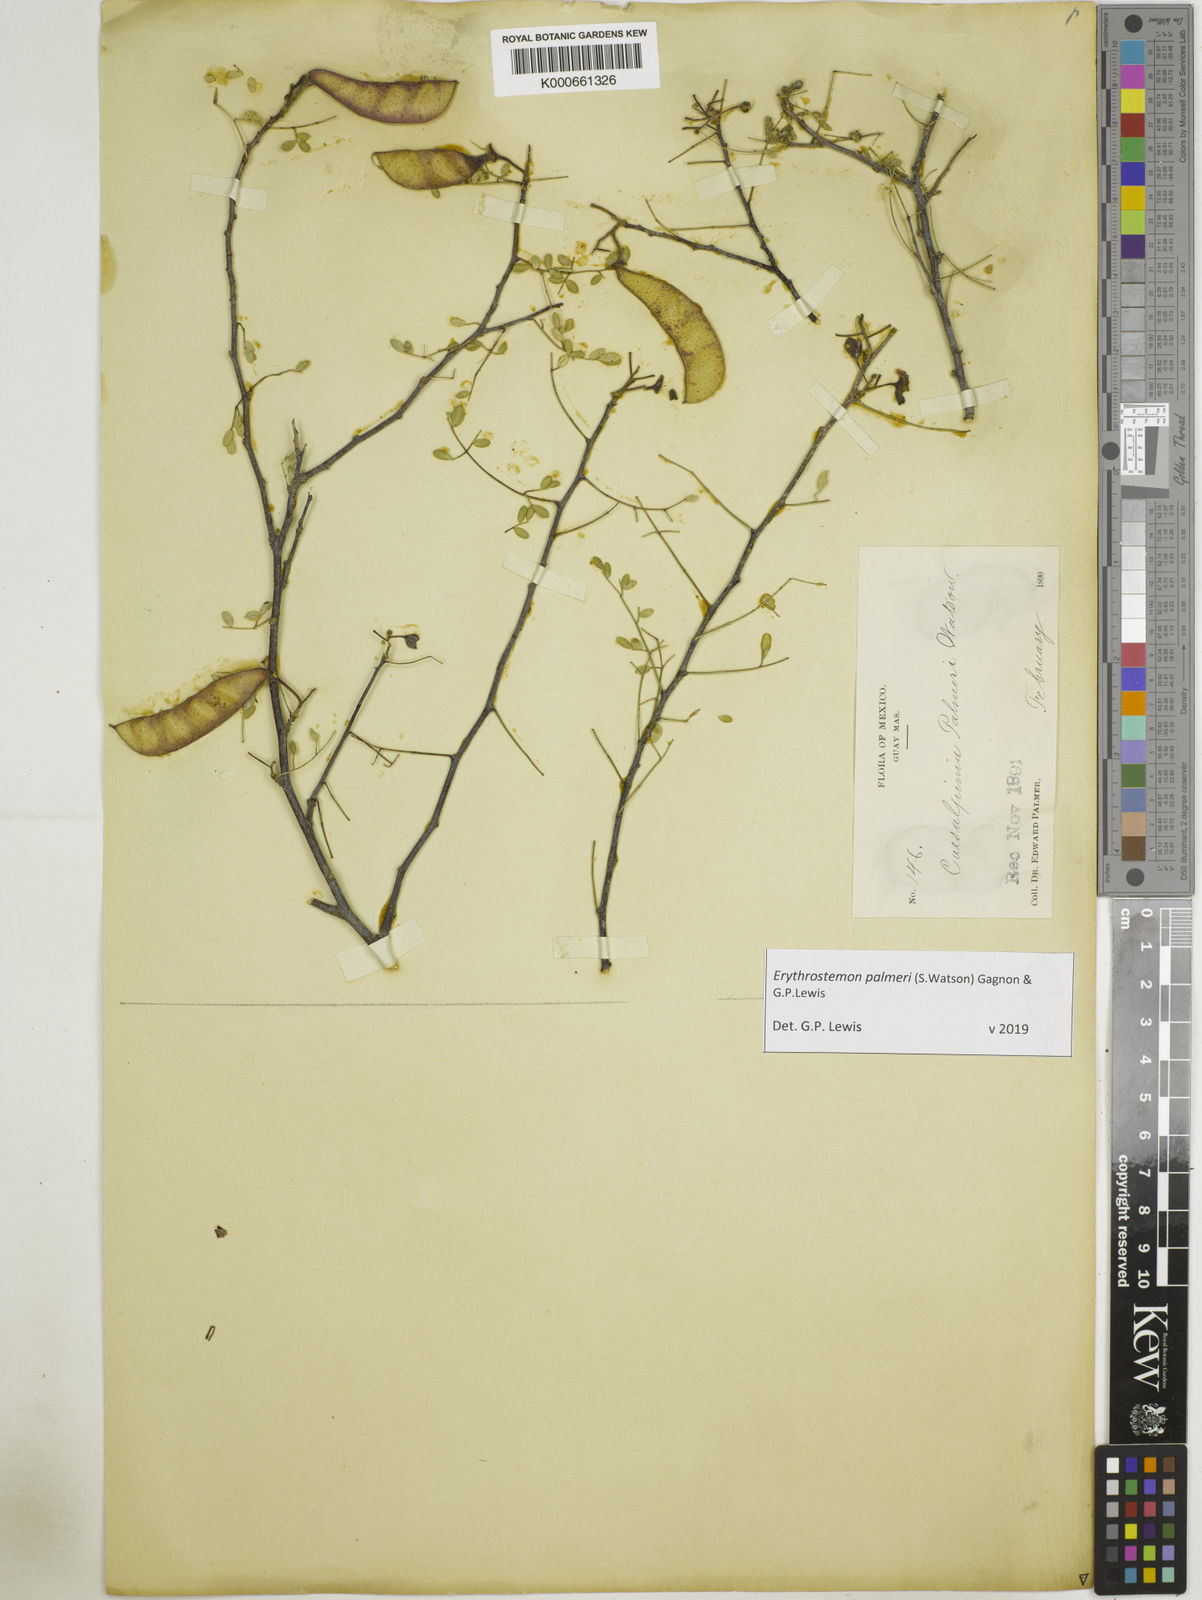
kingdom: Plantae
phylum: Tracheophyta
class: Magnoliopsida
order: Fabales
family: Fabaceae
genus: Erythrostemon
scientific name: Erythrostemon palmeri
